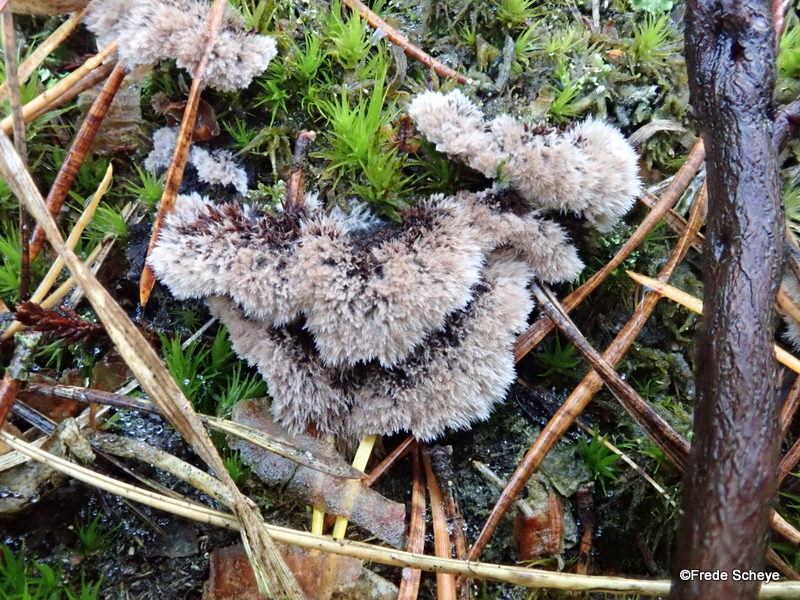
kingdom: Fungi
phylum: Basidiomycota
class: Agaricomycetes
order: Thelephorales
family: Thelephoraceae
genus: Thelephora
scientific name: Thelephora terrestris
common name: fliget frynsesvamp
